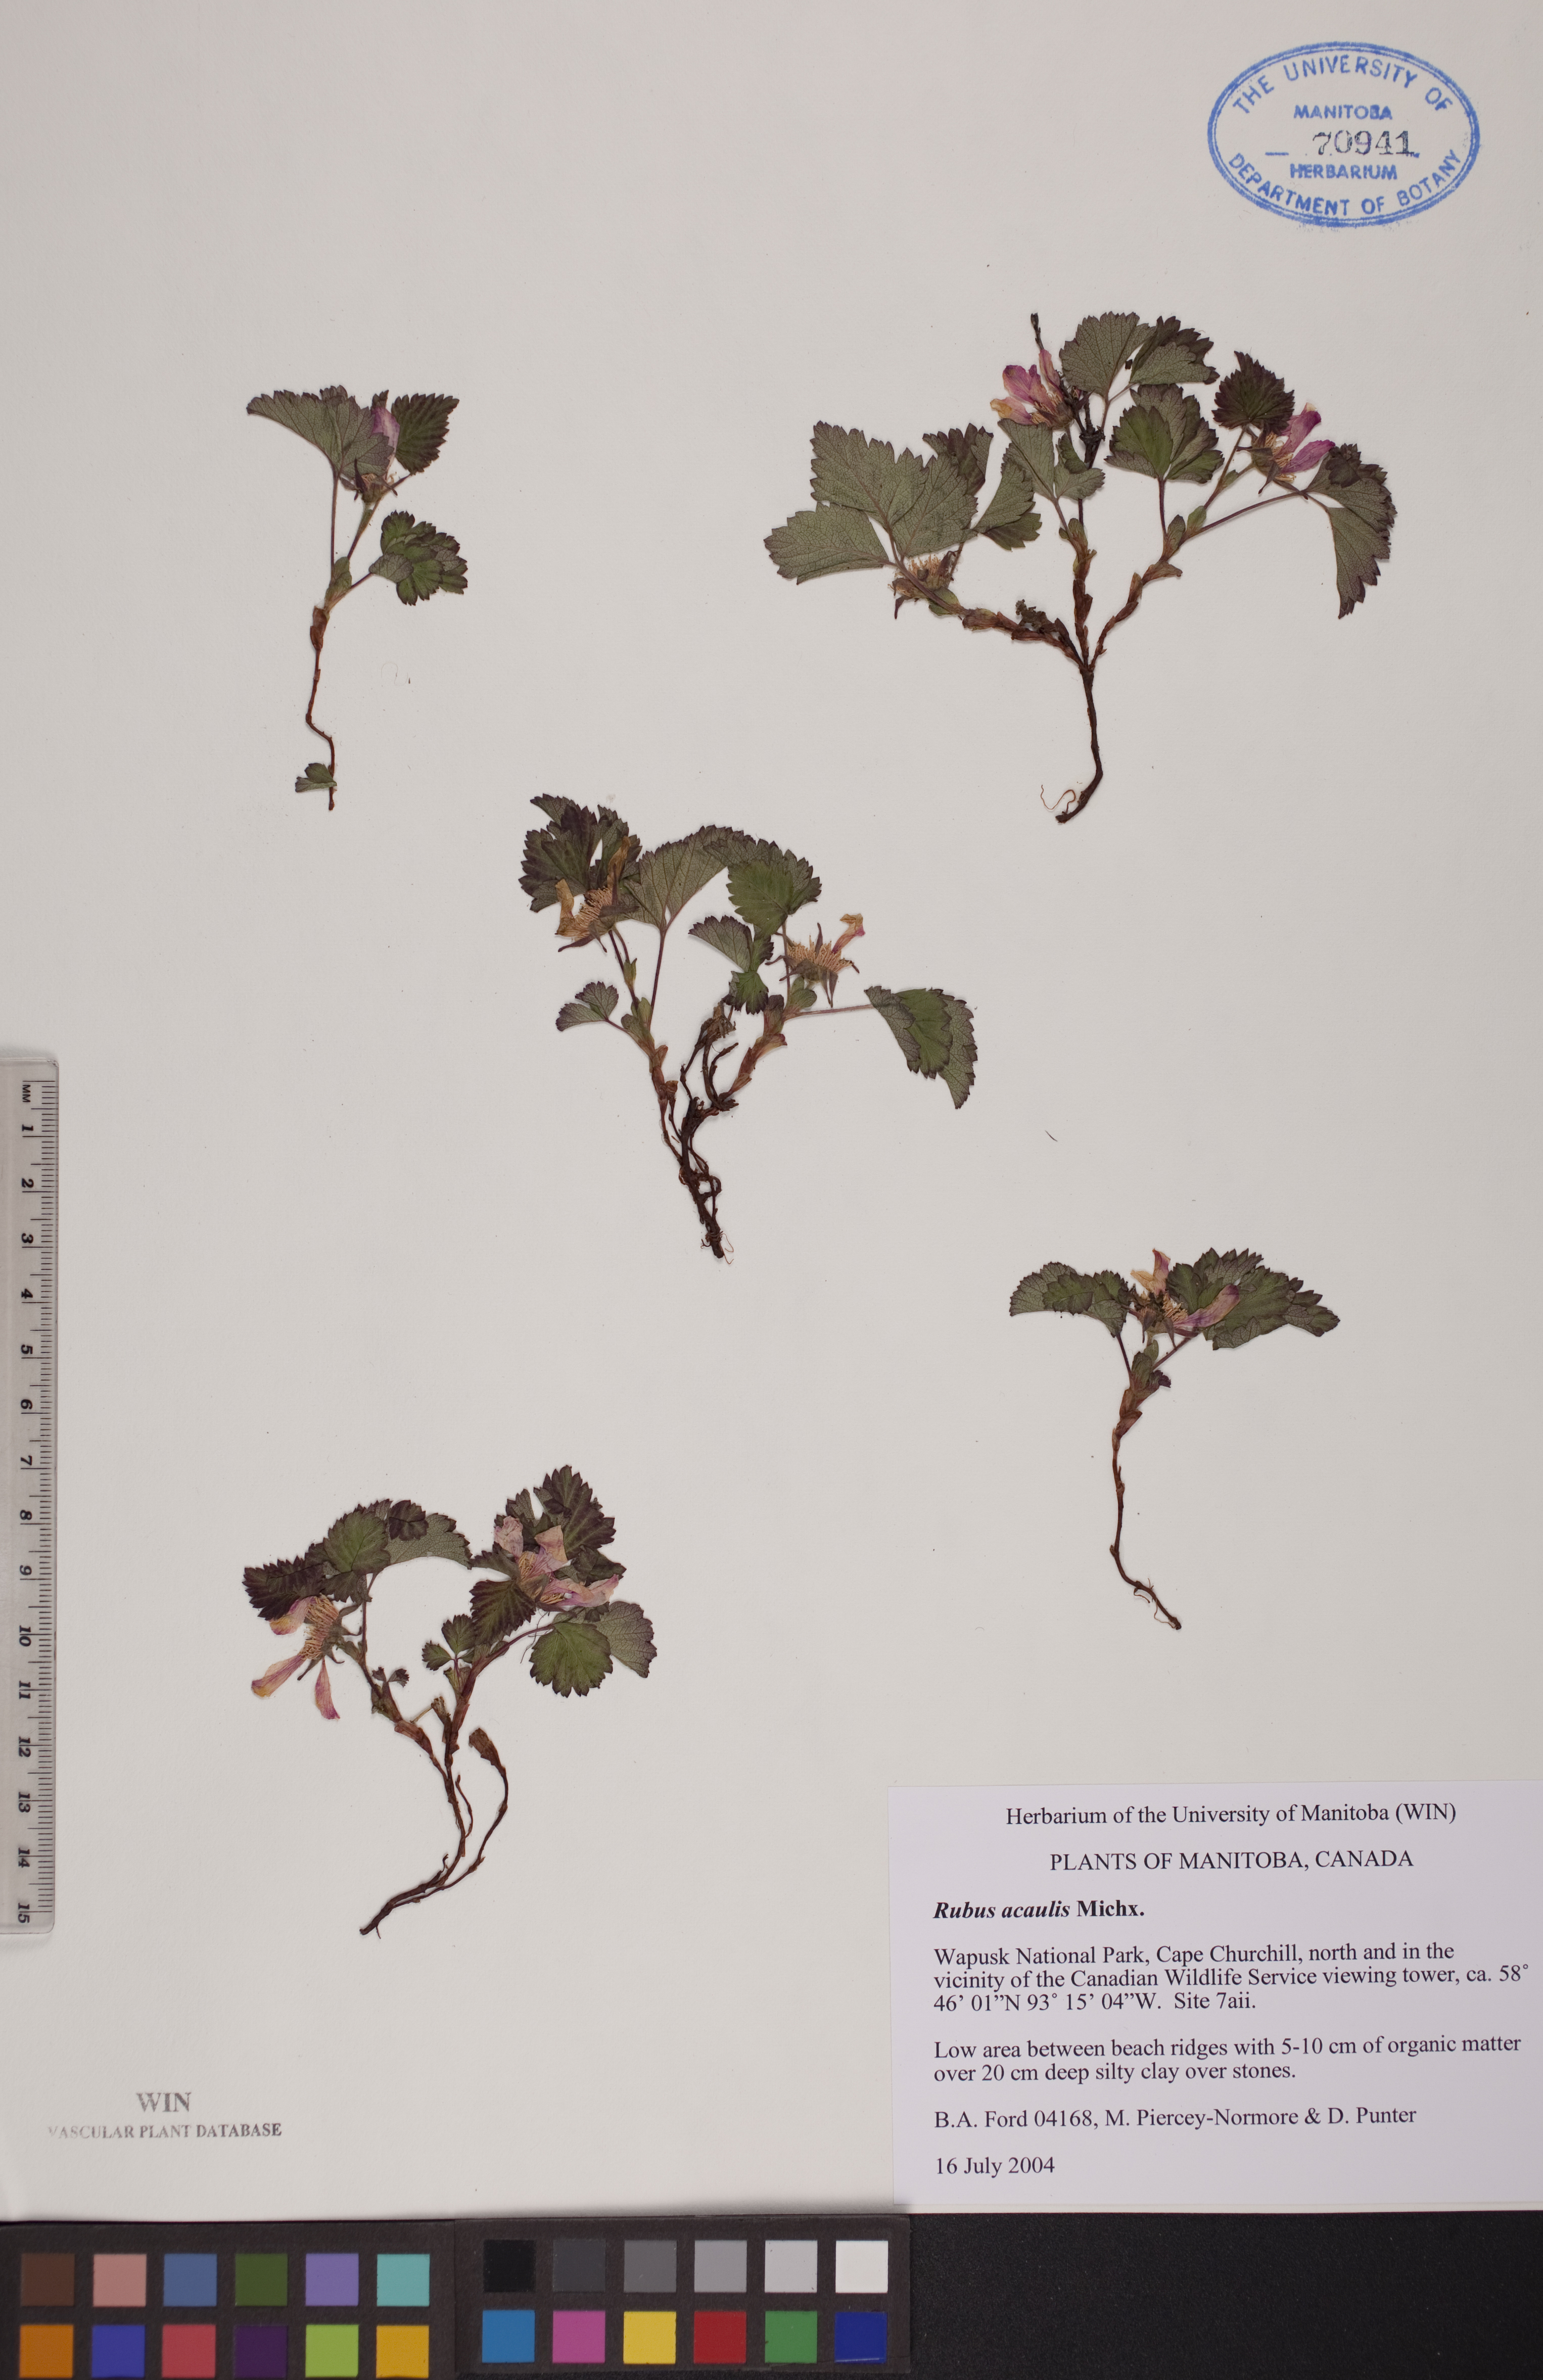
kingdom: Plantae
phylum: Tracheophyta
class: Magnoliopsida
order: Rosales
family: Rosaceae
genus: Rubus
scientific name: Rubus arcticus
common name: Arctic bramble
